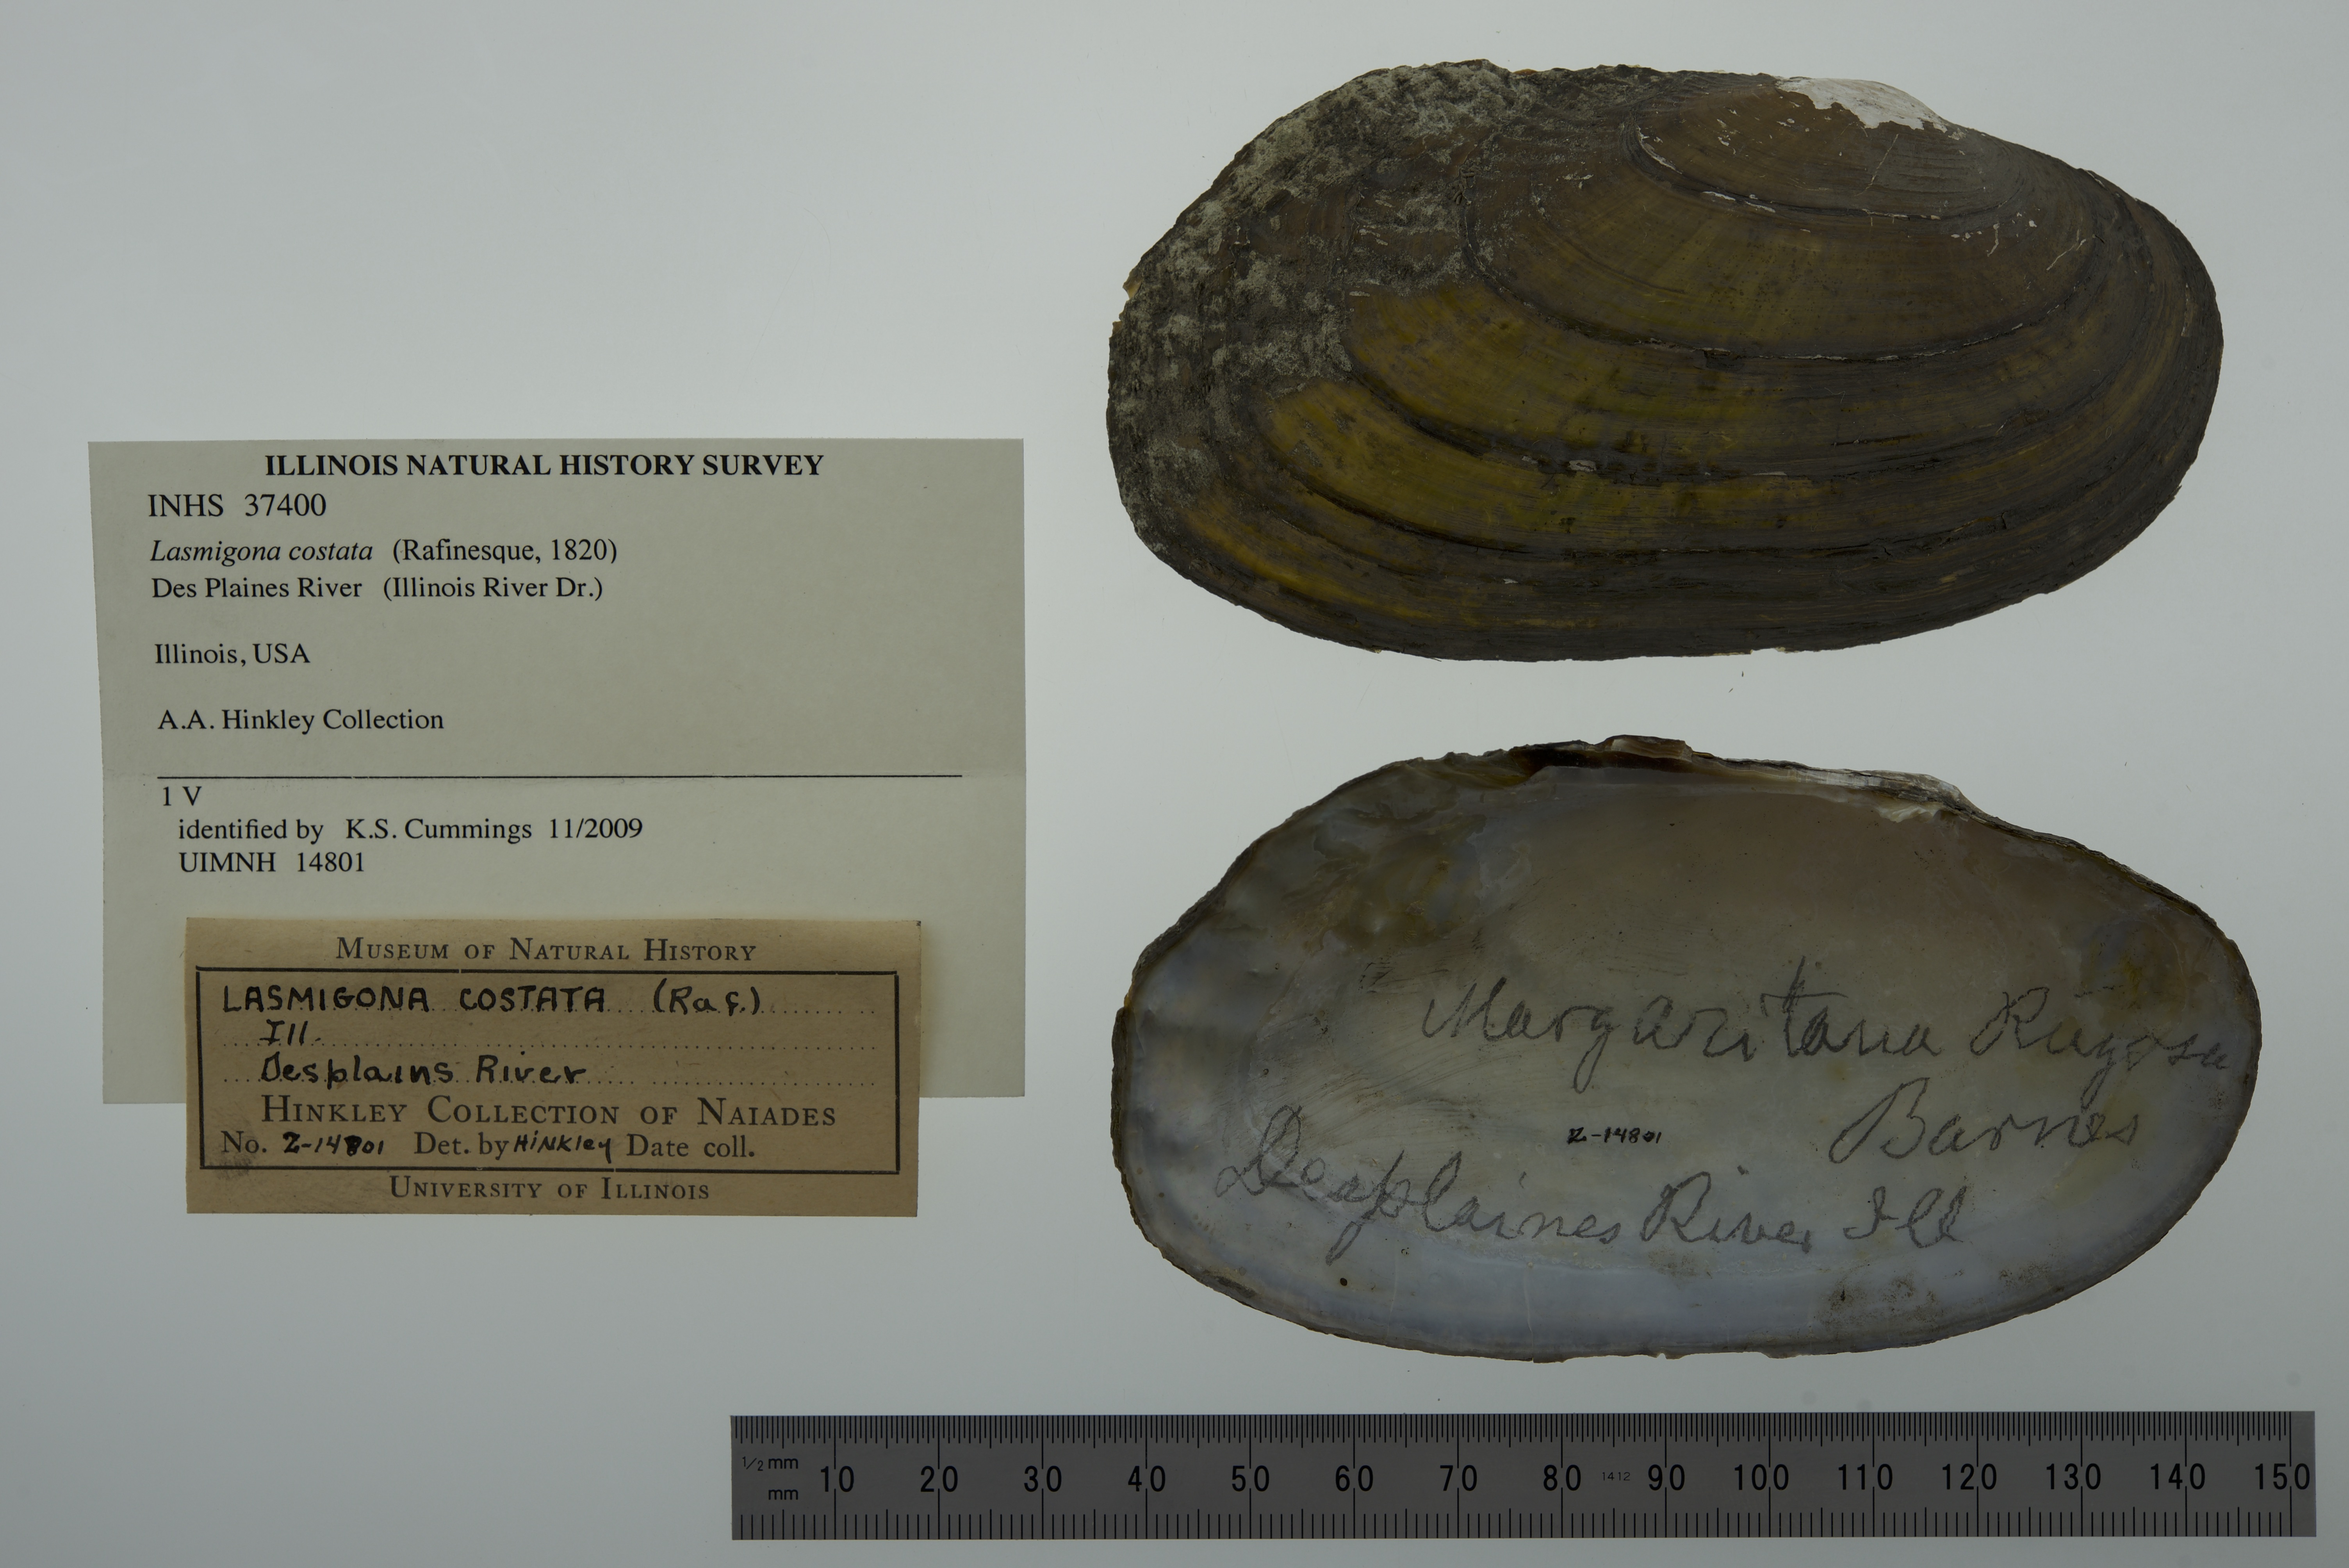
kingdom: Animalia
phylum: Mollusca
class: Bivalvia
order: Unionida
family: Unionidae
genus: Lasmigona
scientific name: Lasmigona costata
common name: Flutedshell
